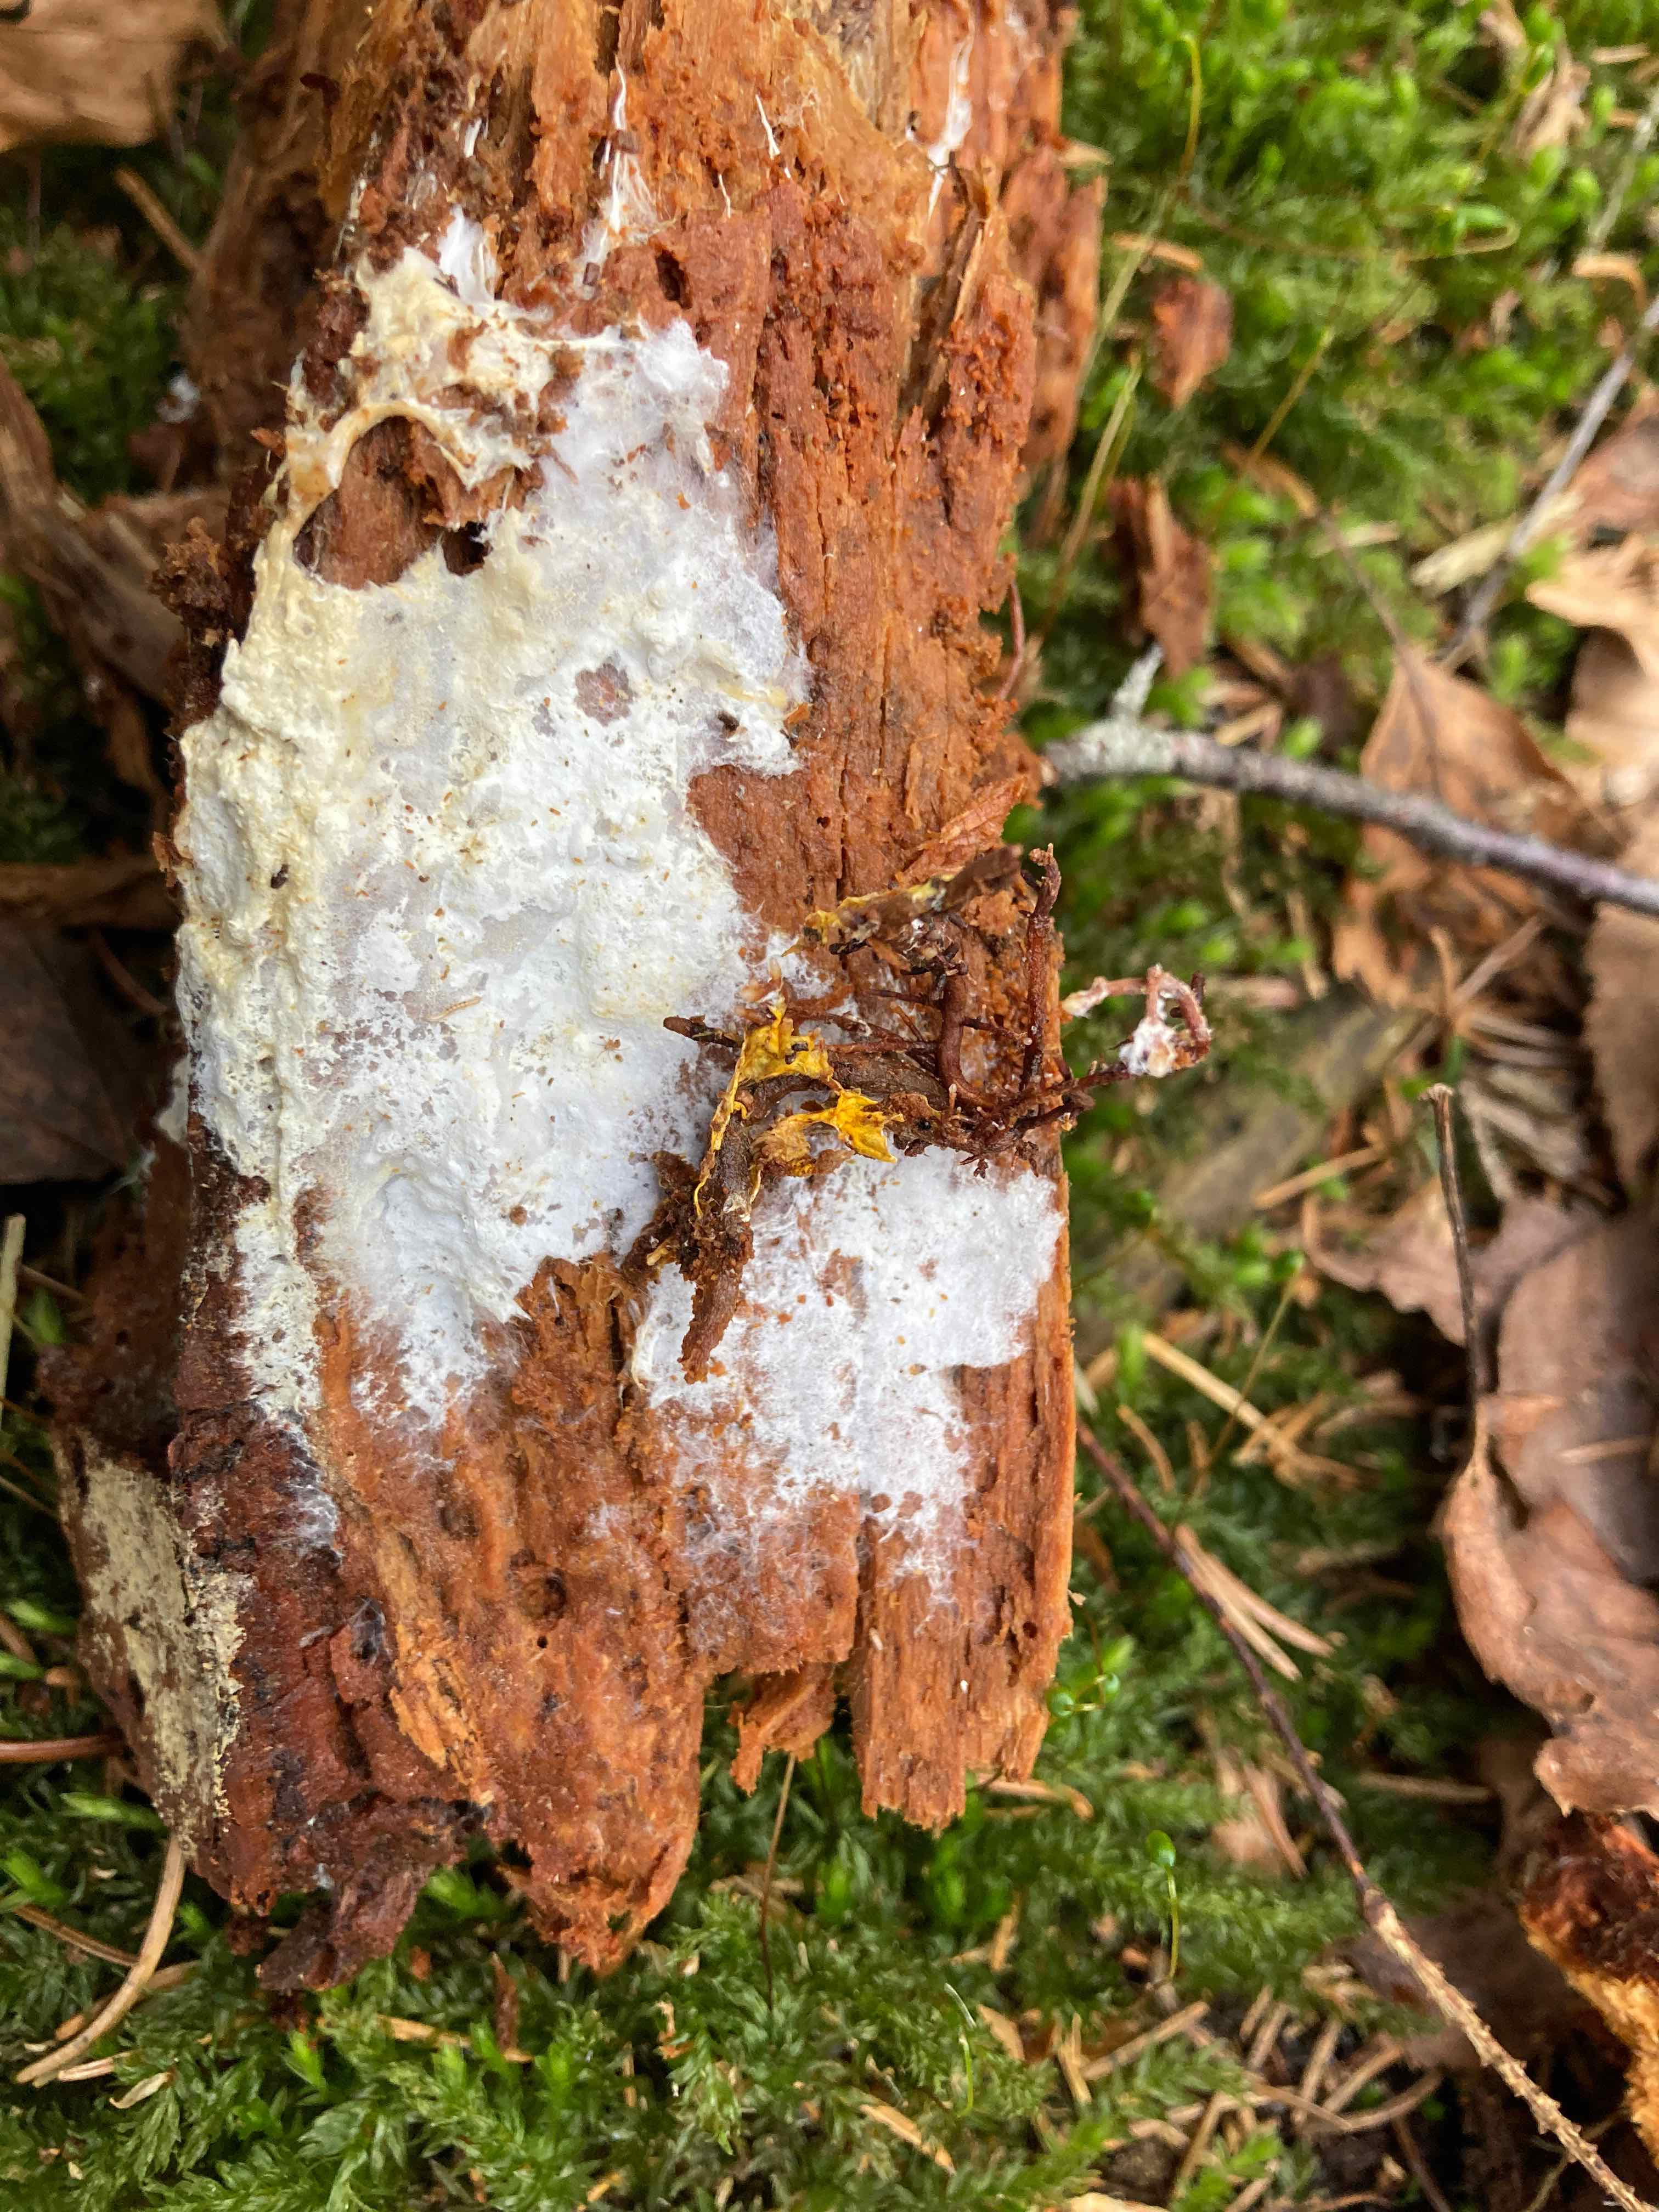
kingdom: Fungi
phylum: Basidiomycota
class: Agaricomycetes
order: Atheliales
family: Atheliaceae
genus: Piloderma
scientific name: Piloderma bicolor
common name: gul førnehinde
